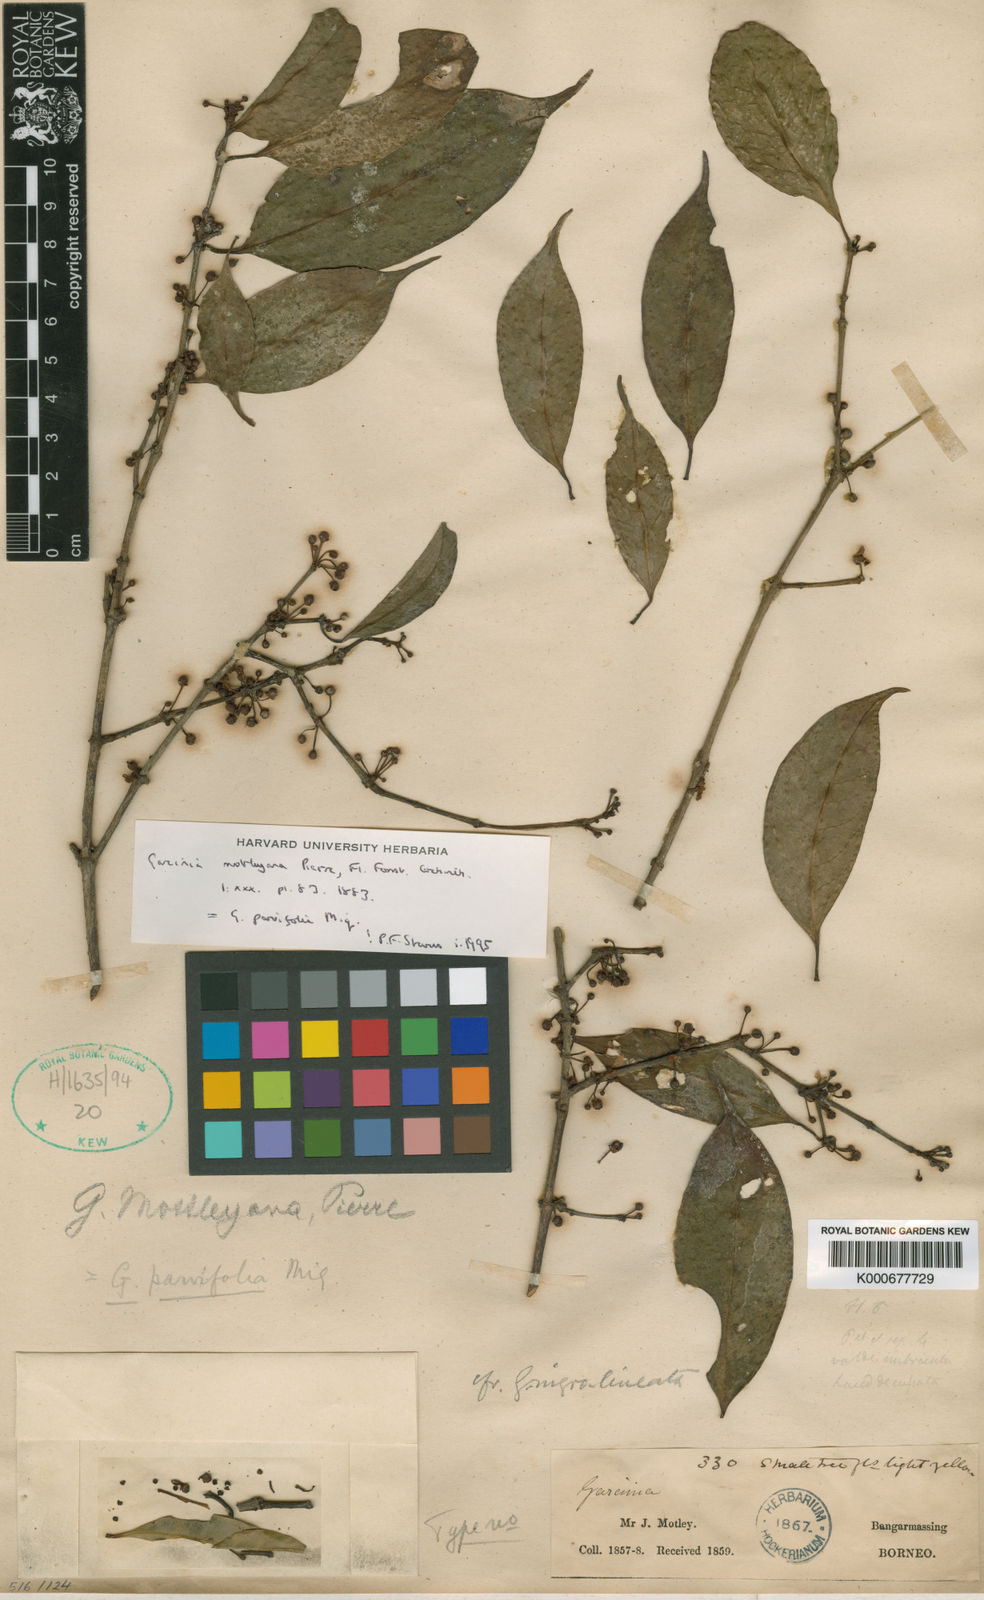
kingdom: Plantae
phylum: Tracheophyta
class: Magnoliopsida
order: Malpighiales
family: Clusiaceae
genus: Garcinia
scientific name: Garcinia mottleyana
